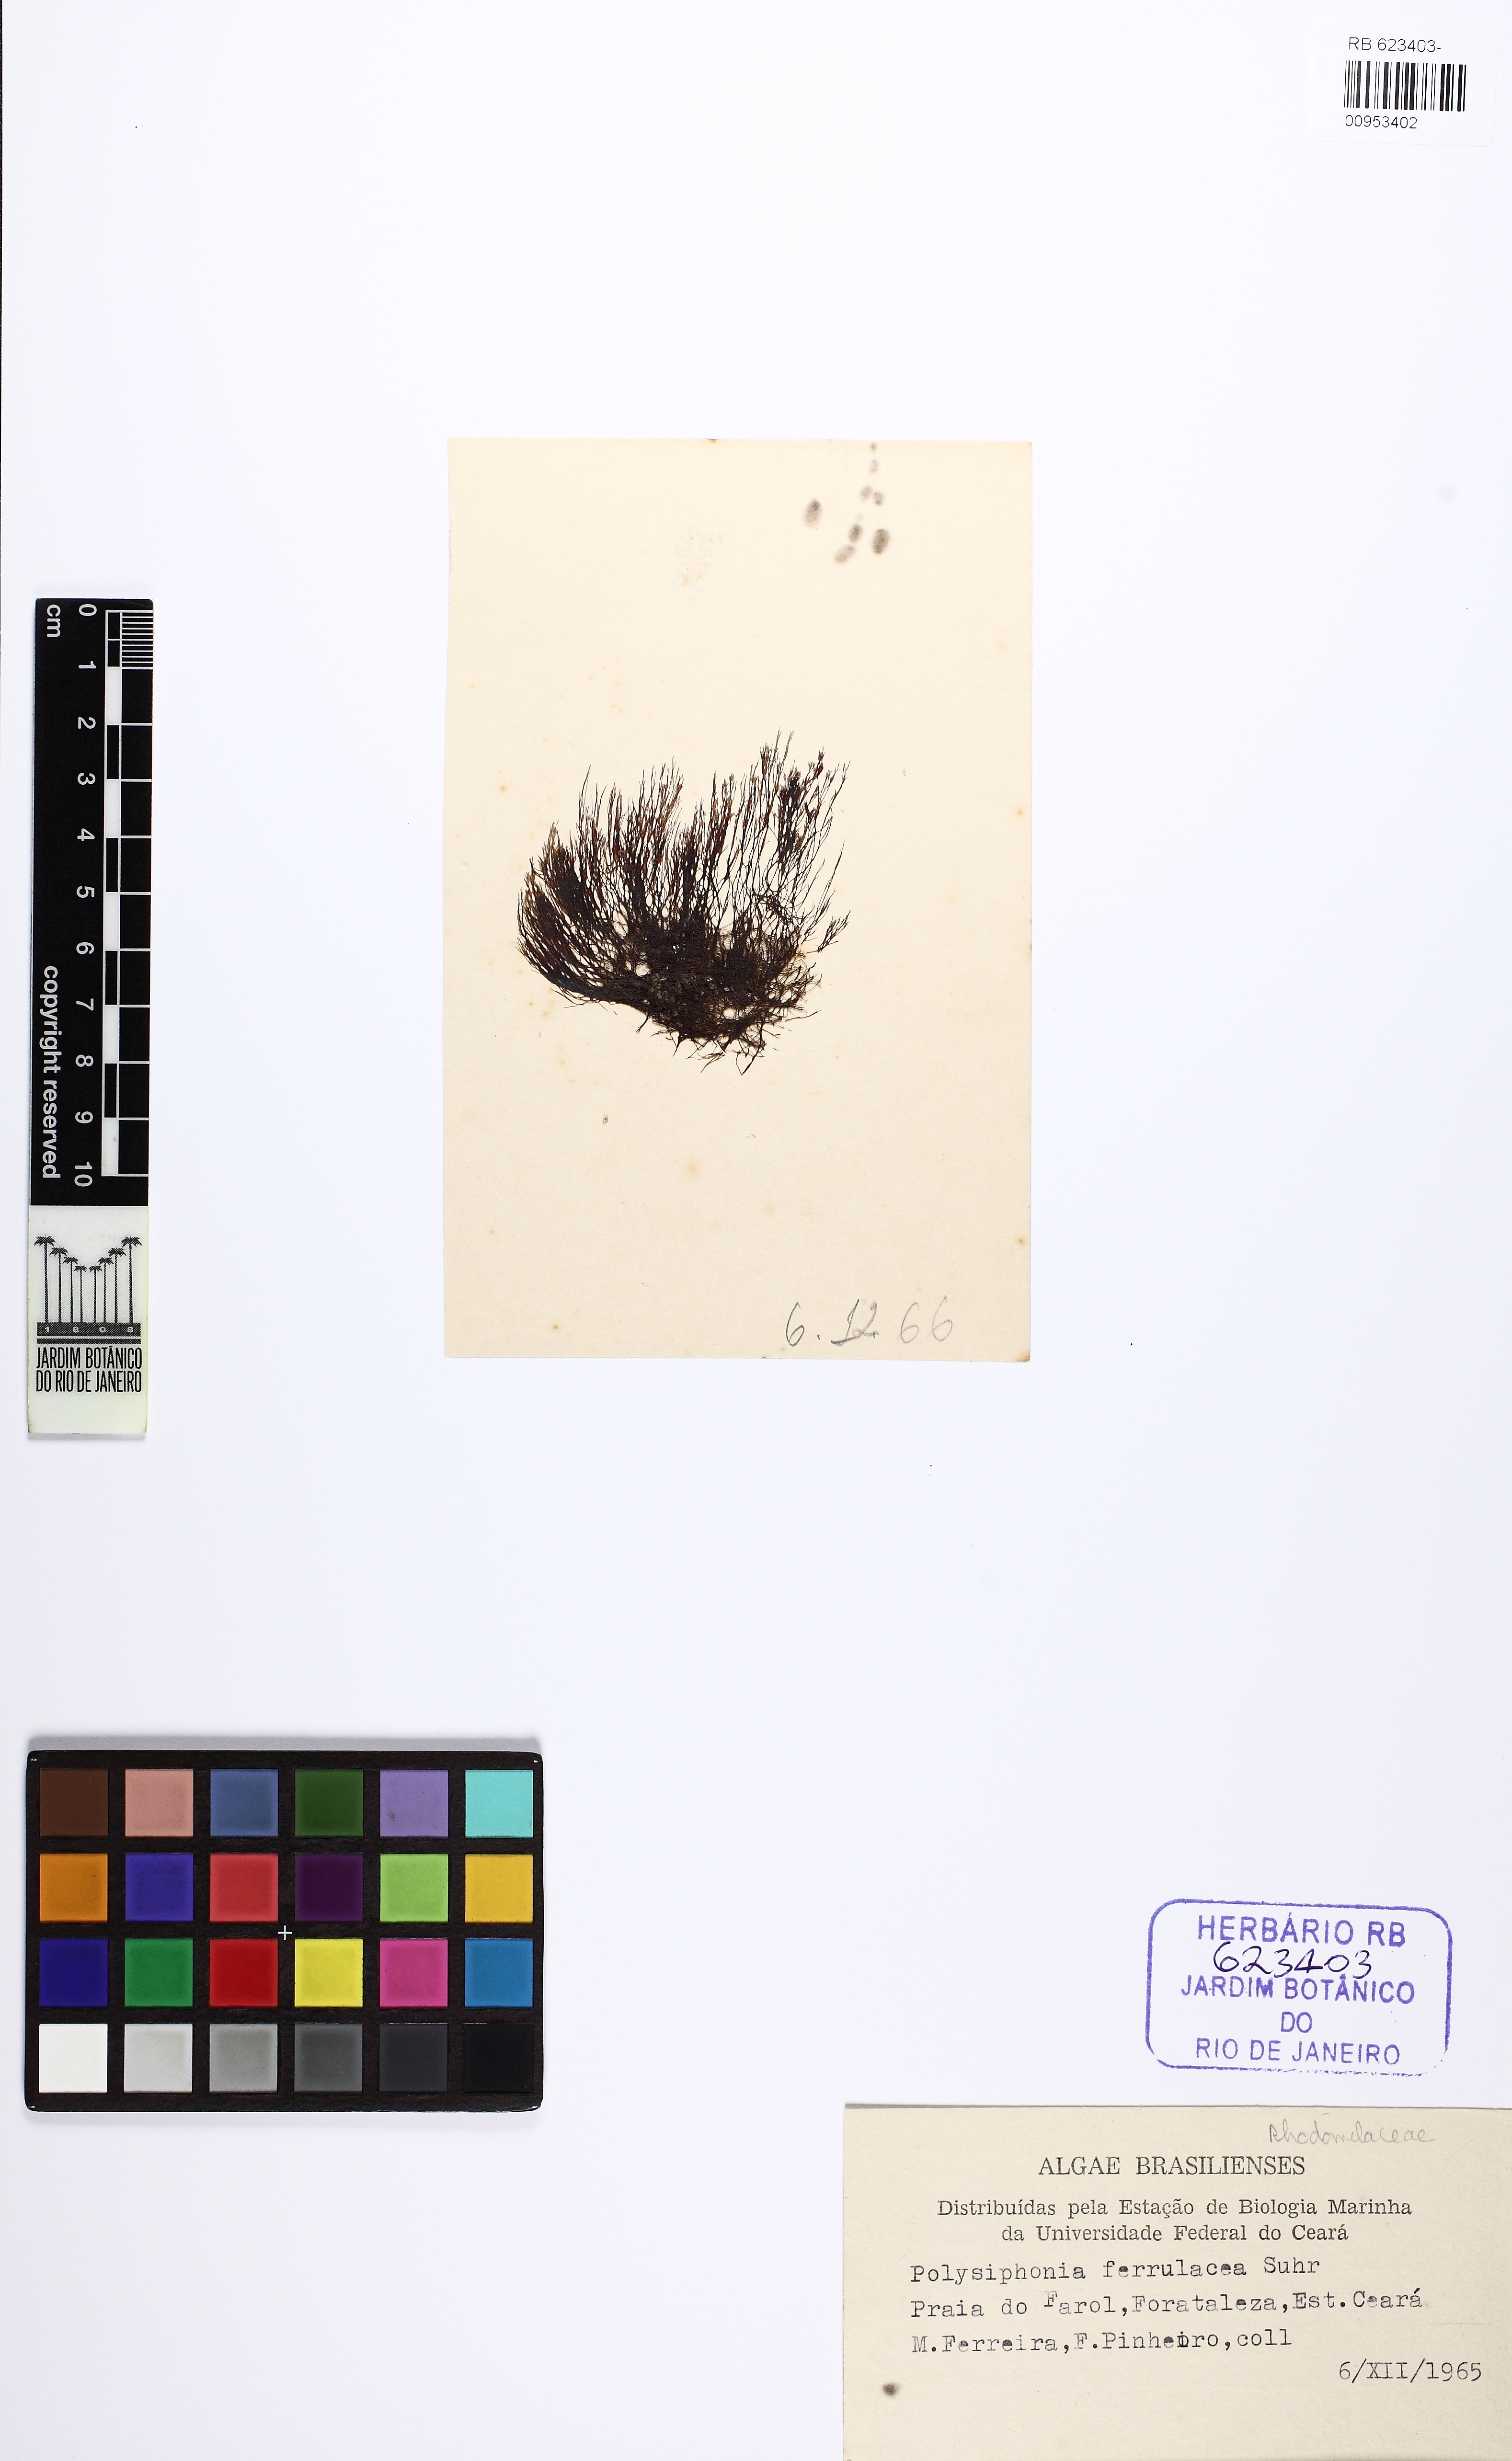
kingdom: Plantae
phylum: Rhodophyta
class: Florideophyceae
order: Ceramiales
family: Rhodomelaceae
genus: Neosiphonia
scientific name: Neosiphonia ferulacea
